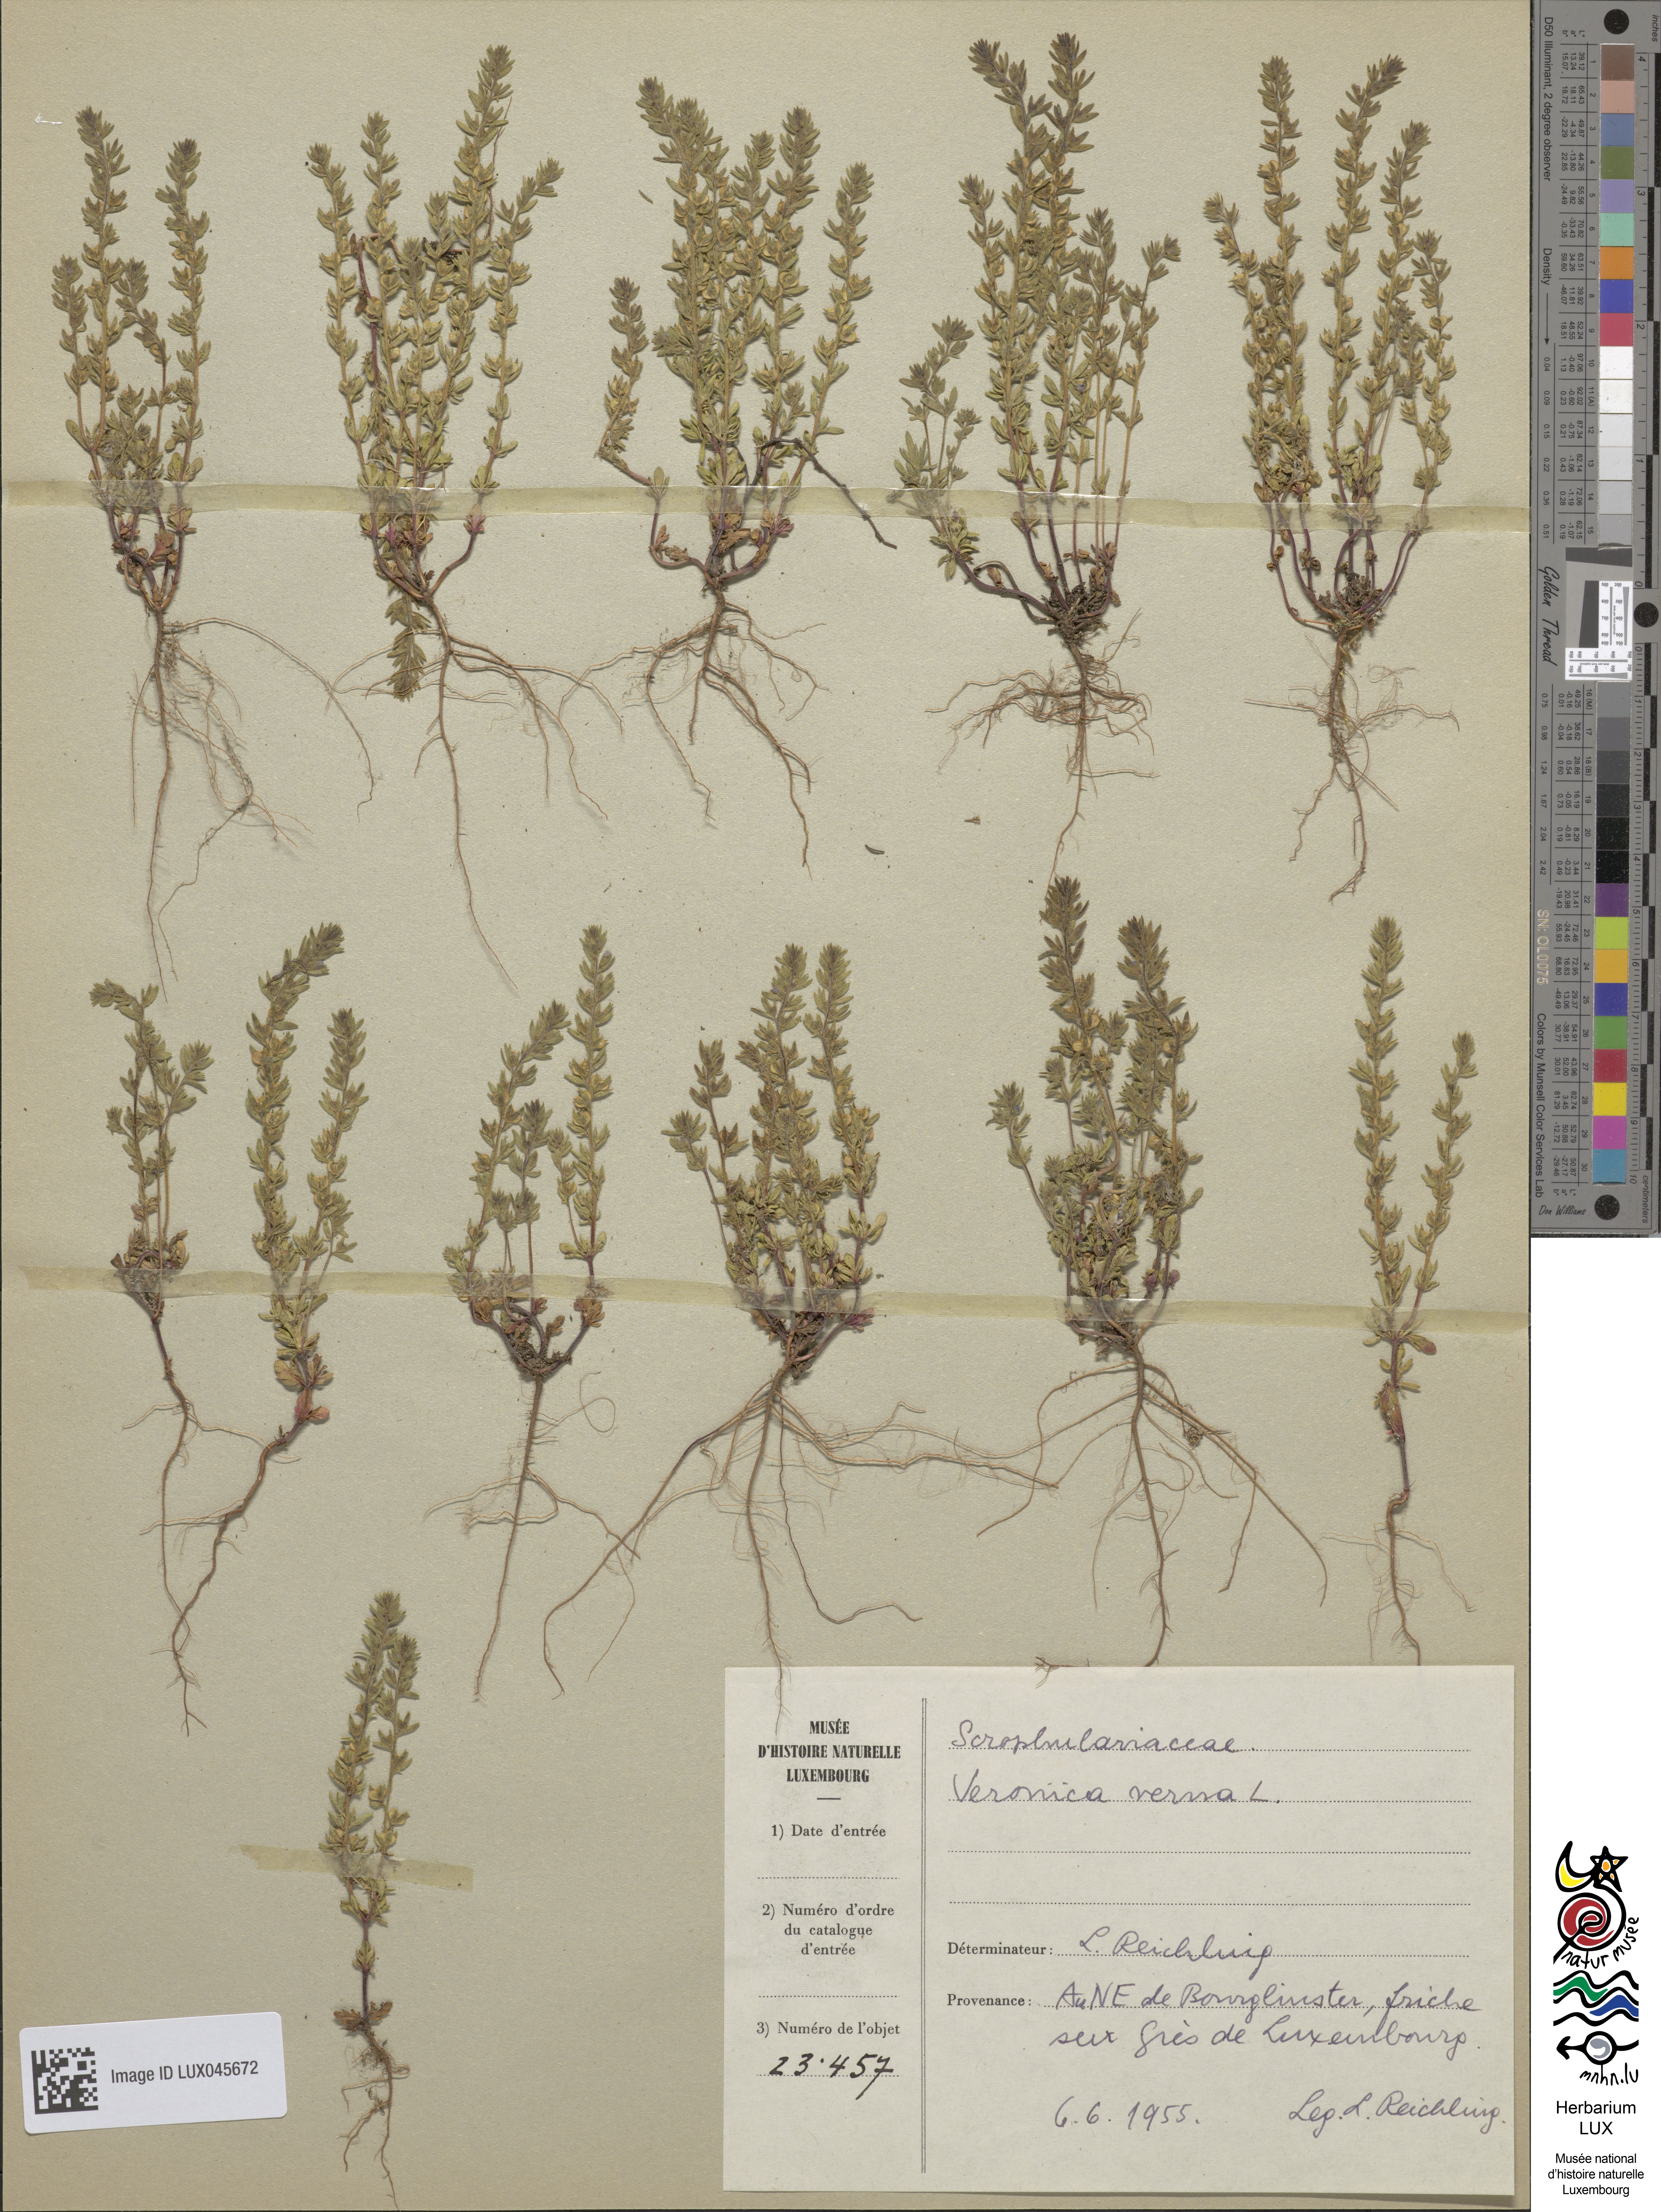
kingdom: Plantae
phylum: Tracheophyta
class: Magnoliopsida
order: Lamiales
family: Plantaginaceae
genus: Veronica
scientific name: Veronica verna
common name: Spring speedwell
